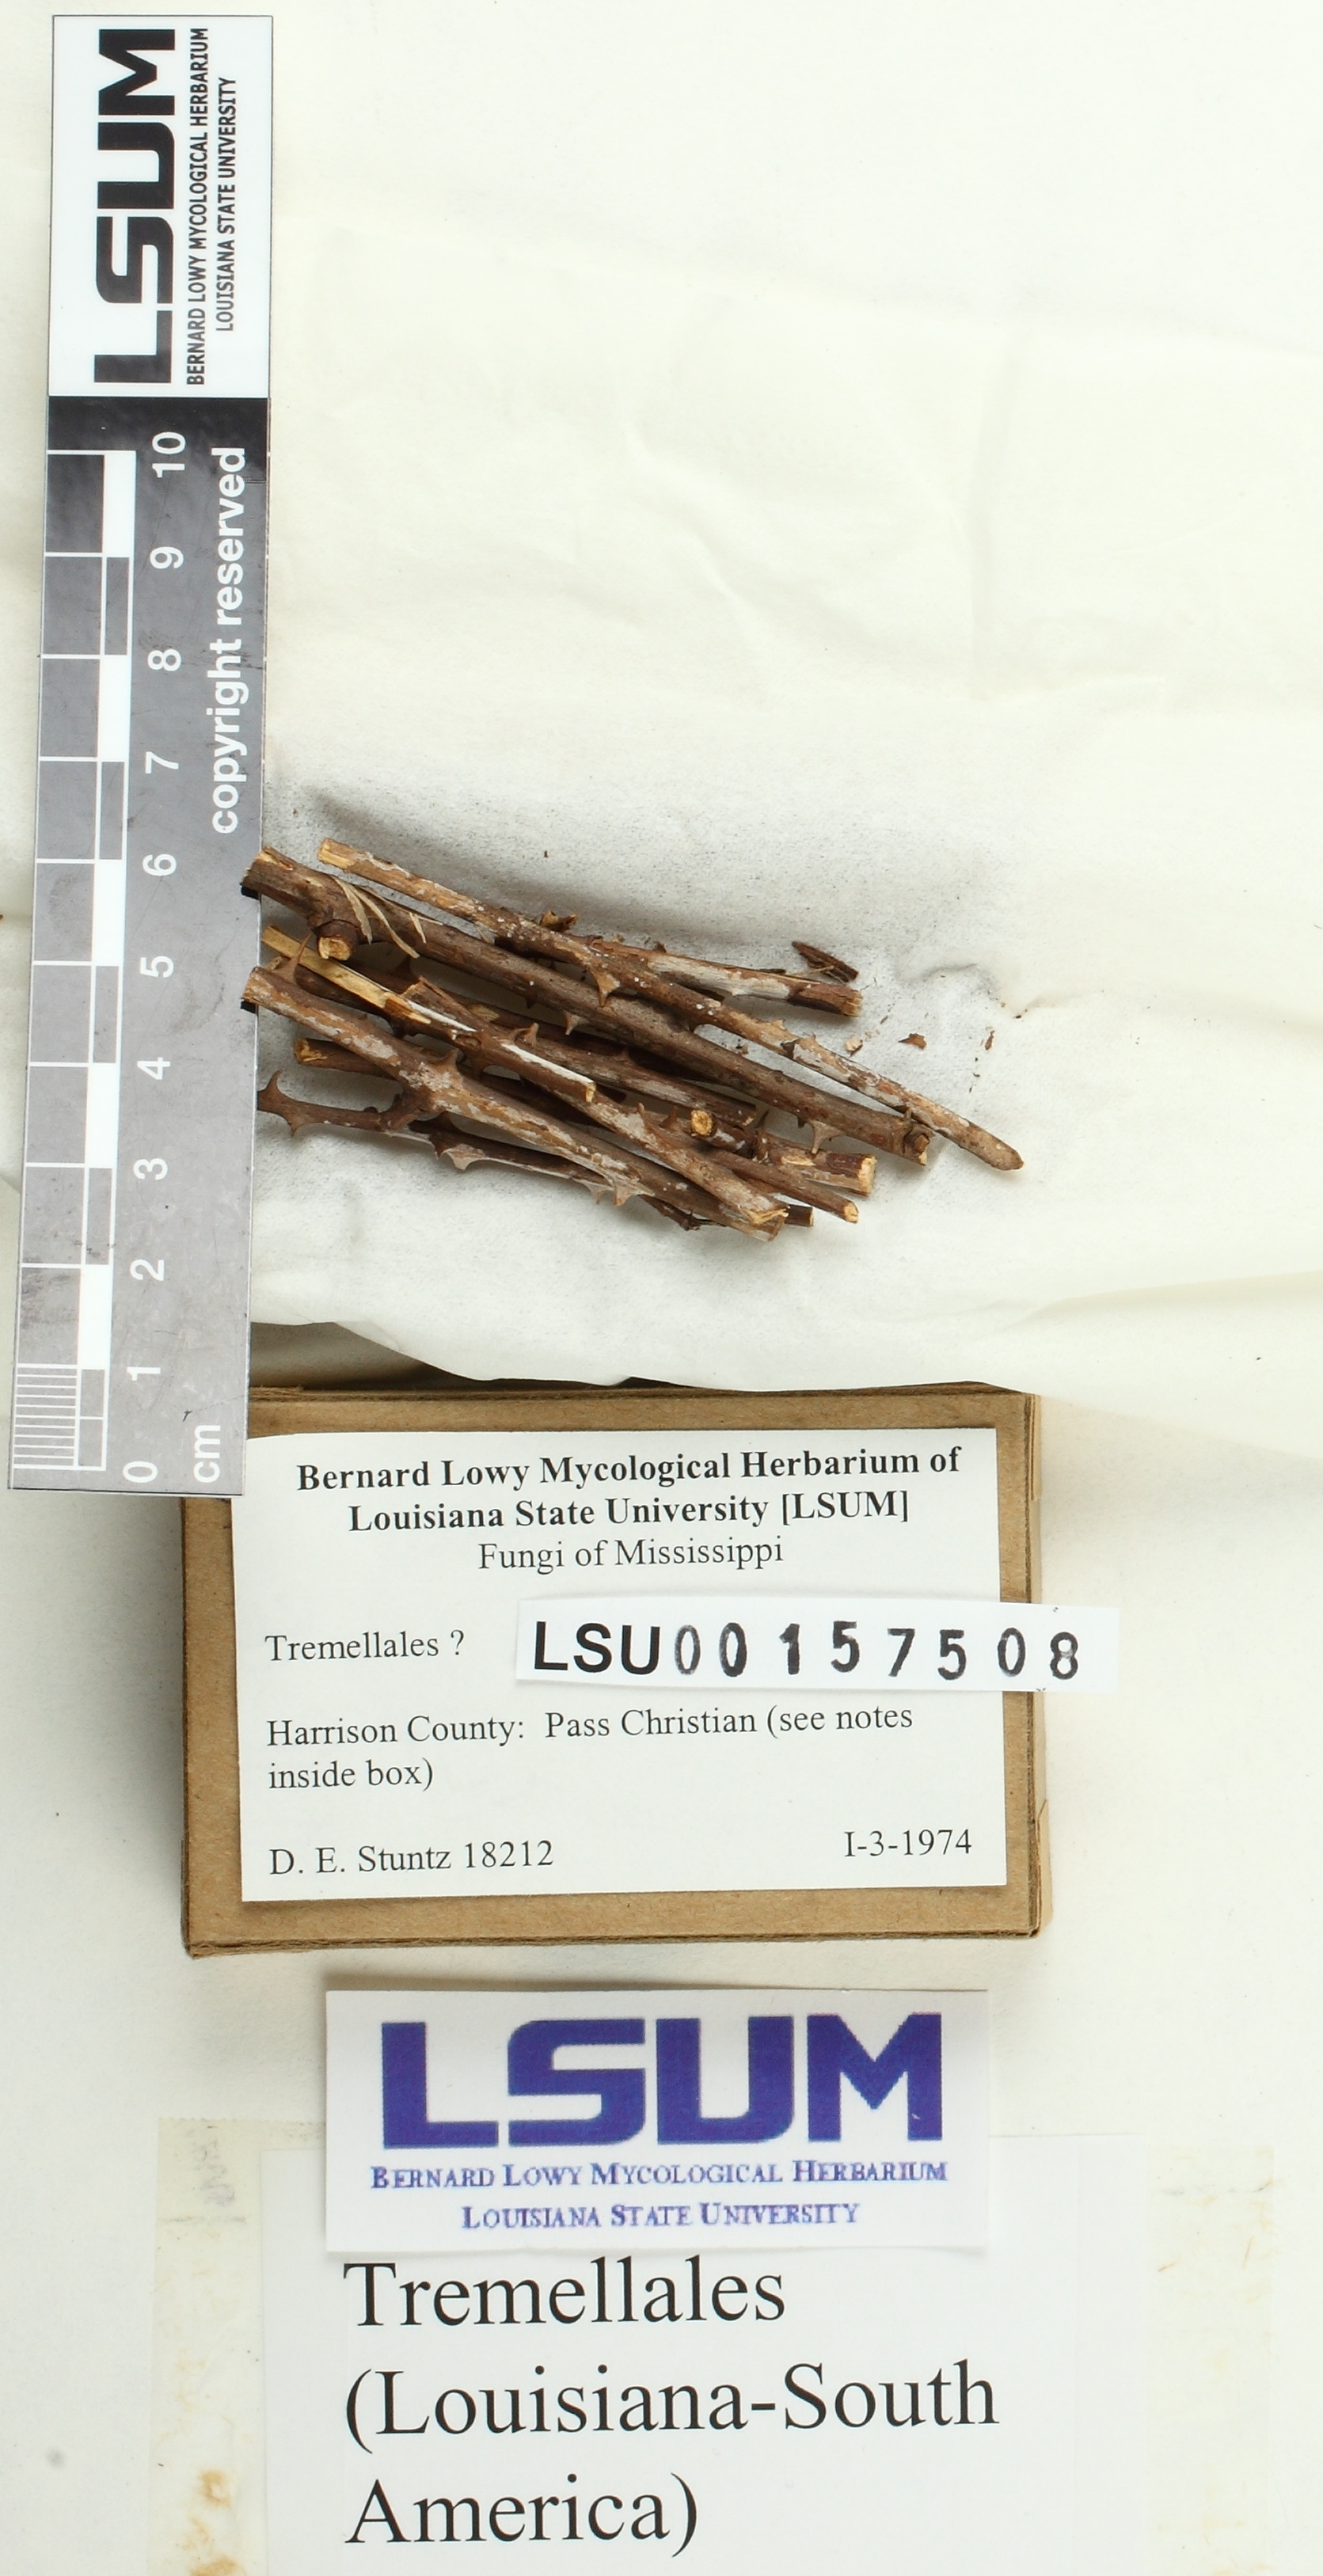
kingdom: Fungi
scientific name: Fungi
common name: Fungi
